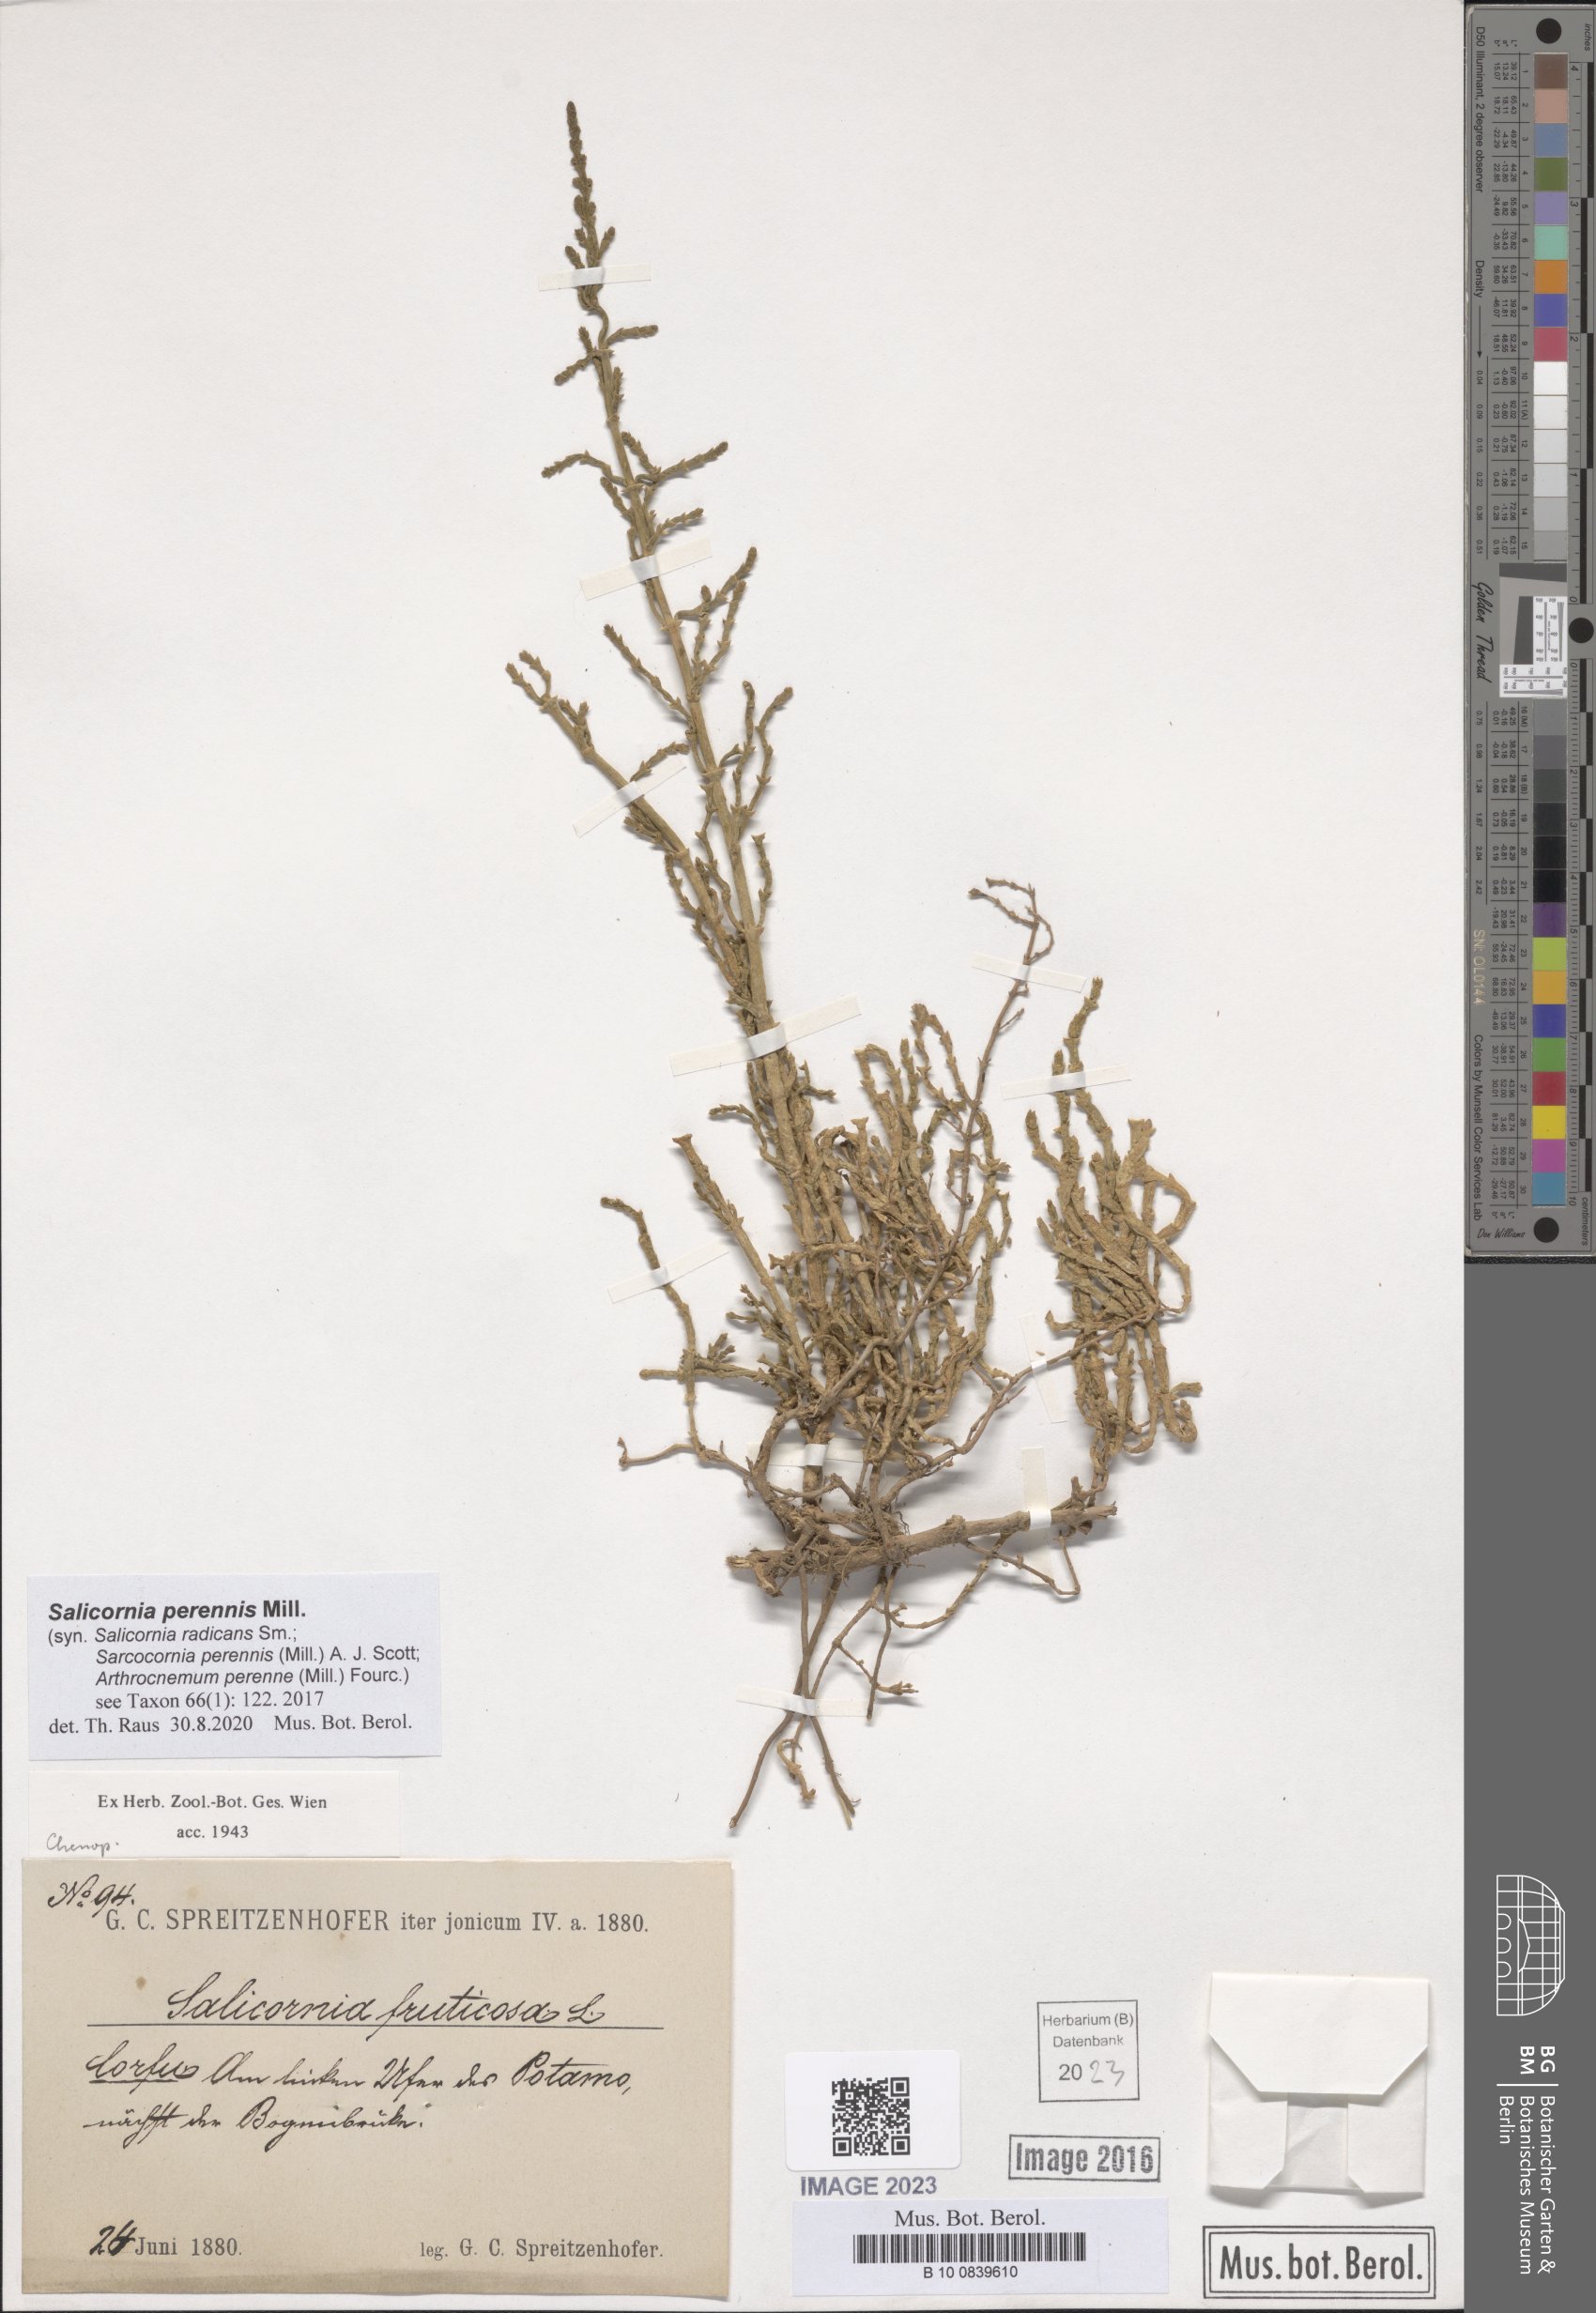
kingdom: Plantae
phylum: Tracheophyta
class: Magnoliopsida
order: Caryophyllales
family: Amaranthaceae
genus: Salicornia
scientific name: Salicornia perennis
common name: Chicken claws
